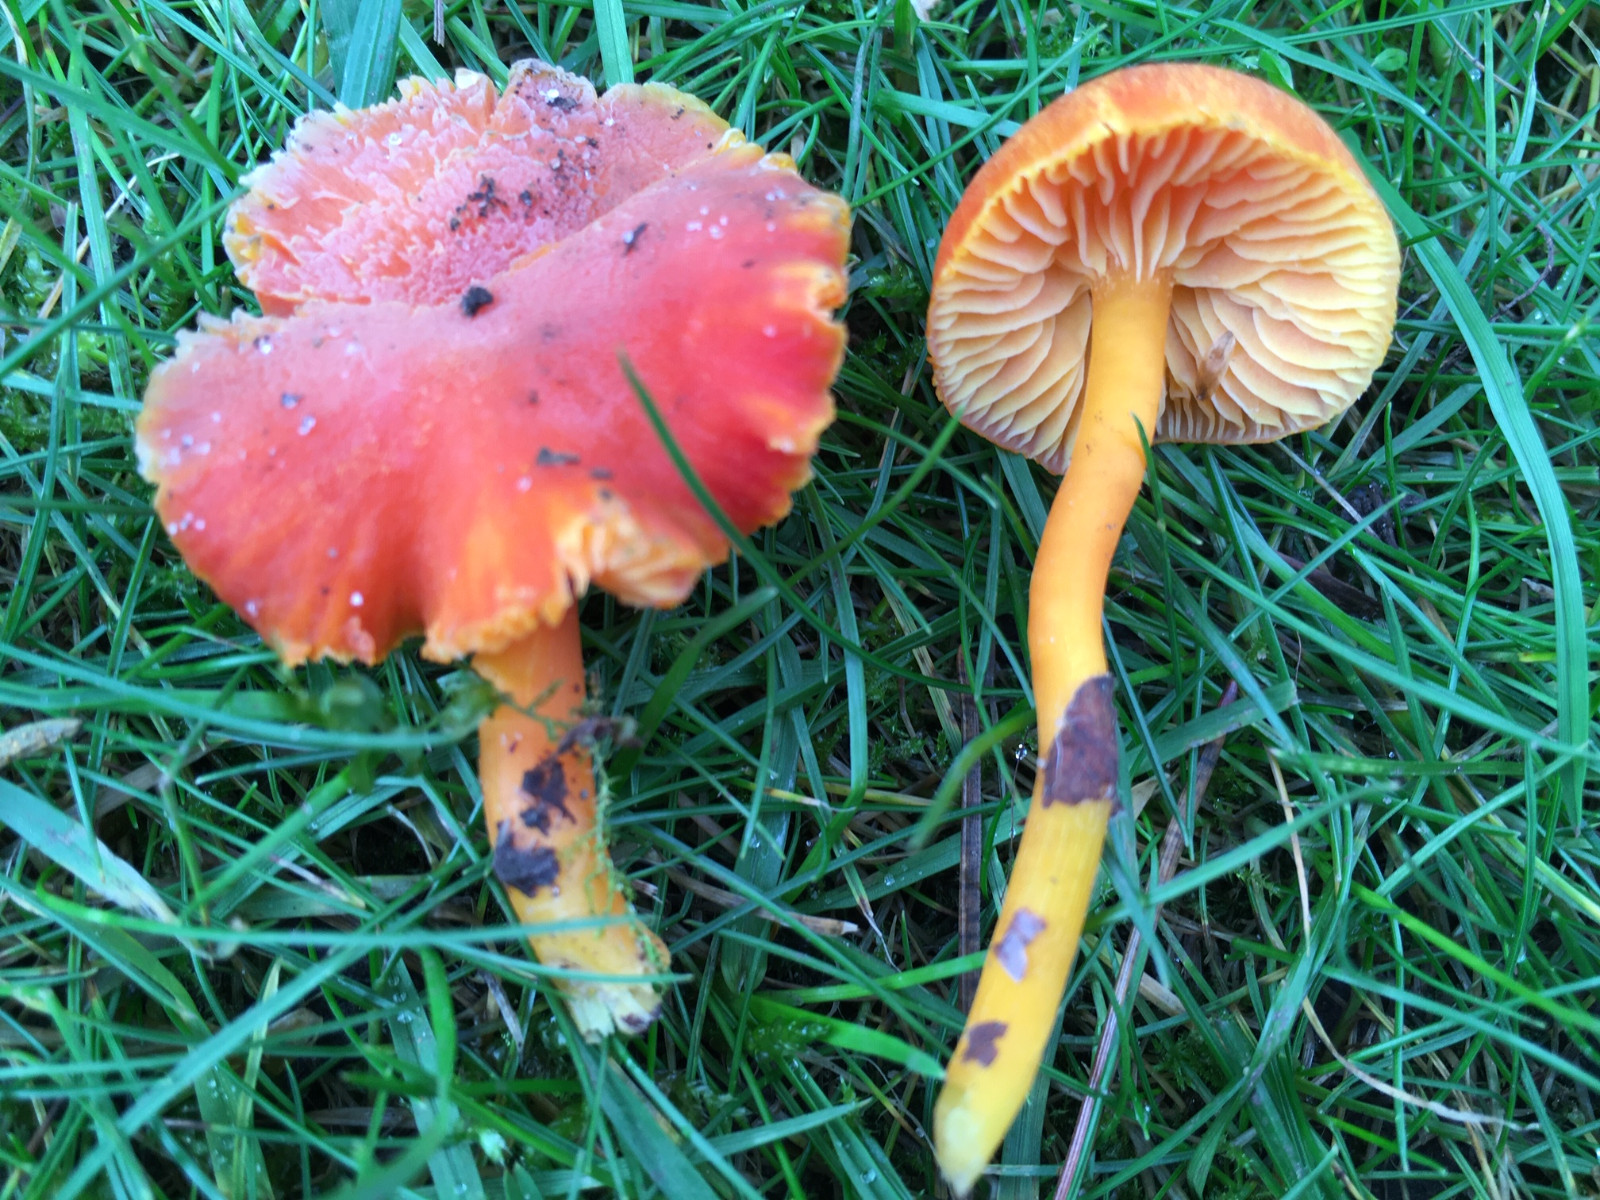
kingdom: Fungi
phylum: Basidiomycota
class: Agaricomycetes
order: Agaricales
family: Hygrophoraceae
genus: Hygrocybe
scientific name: Hygrocybe miniata
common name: mønje-vokshat
